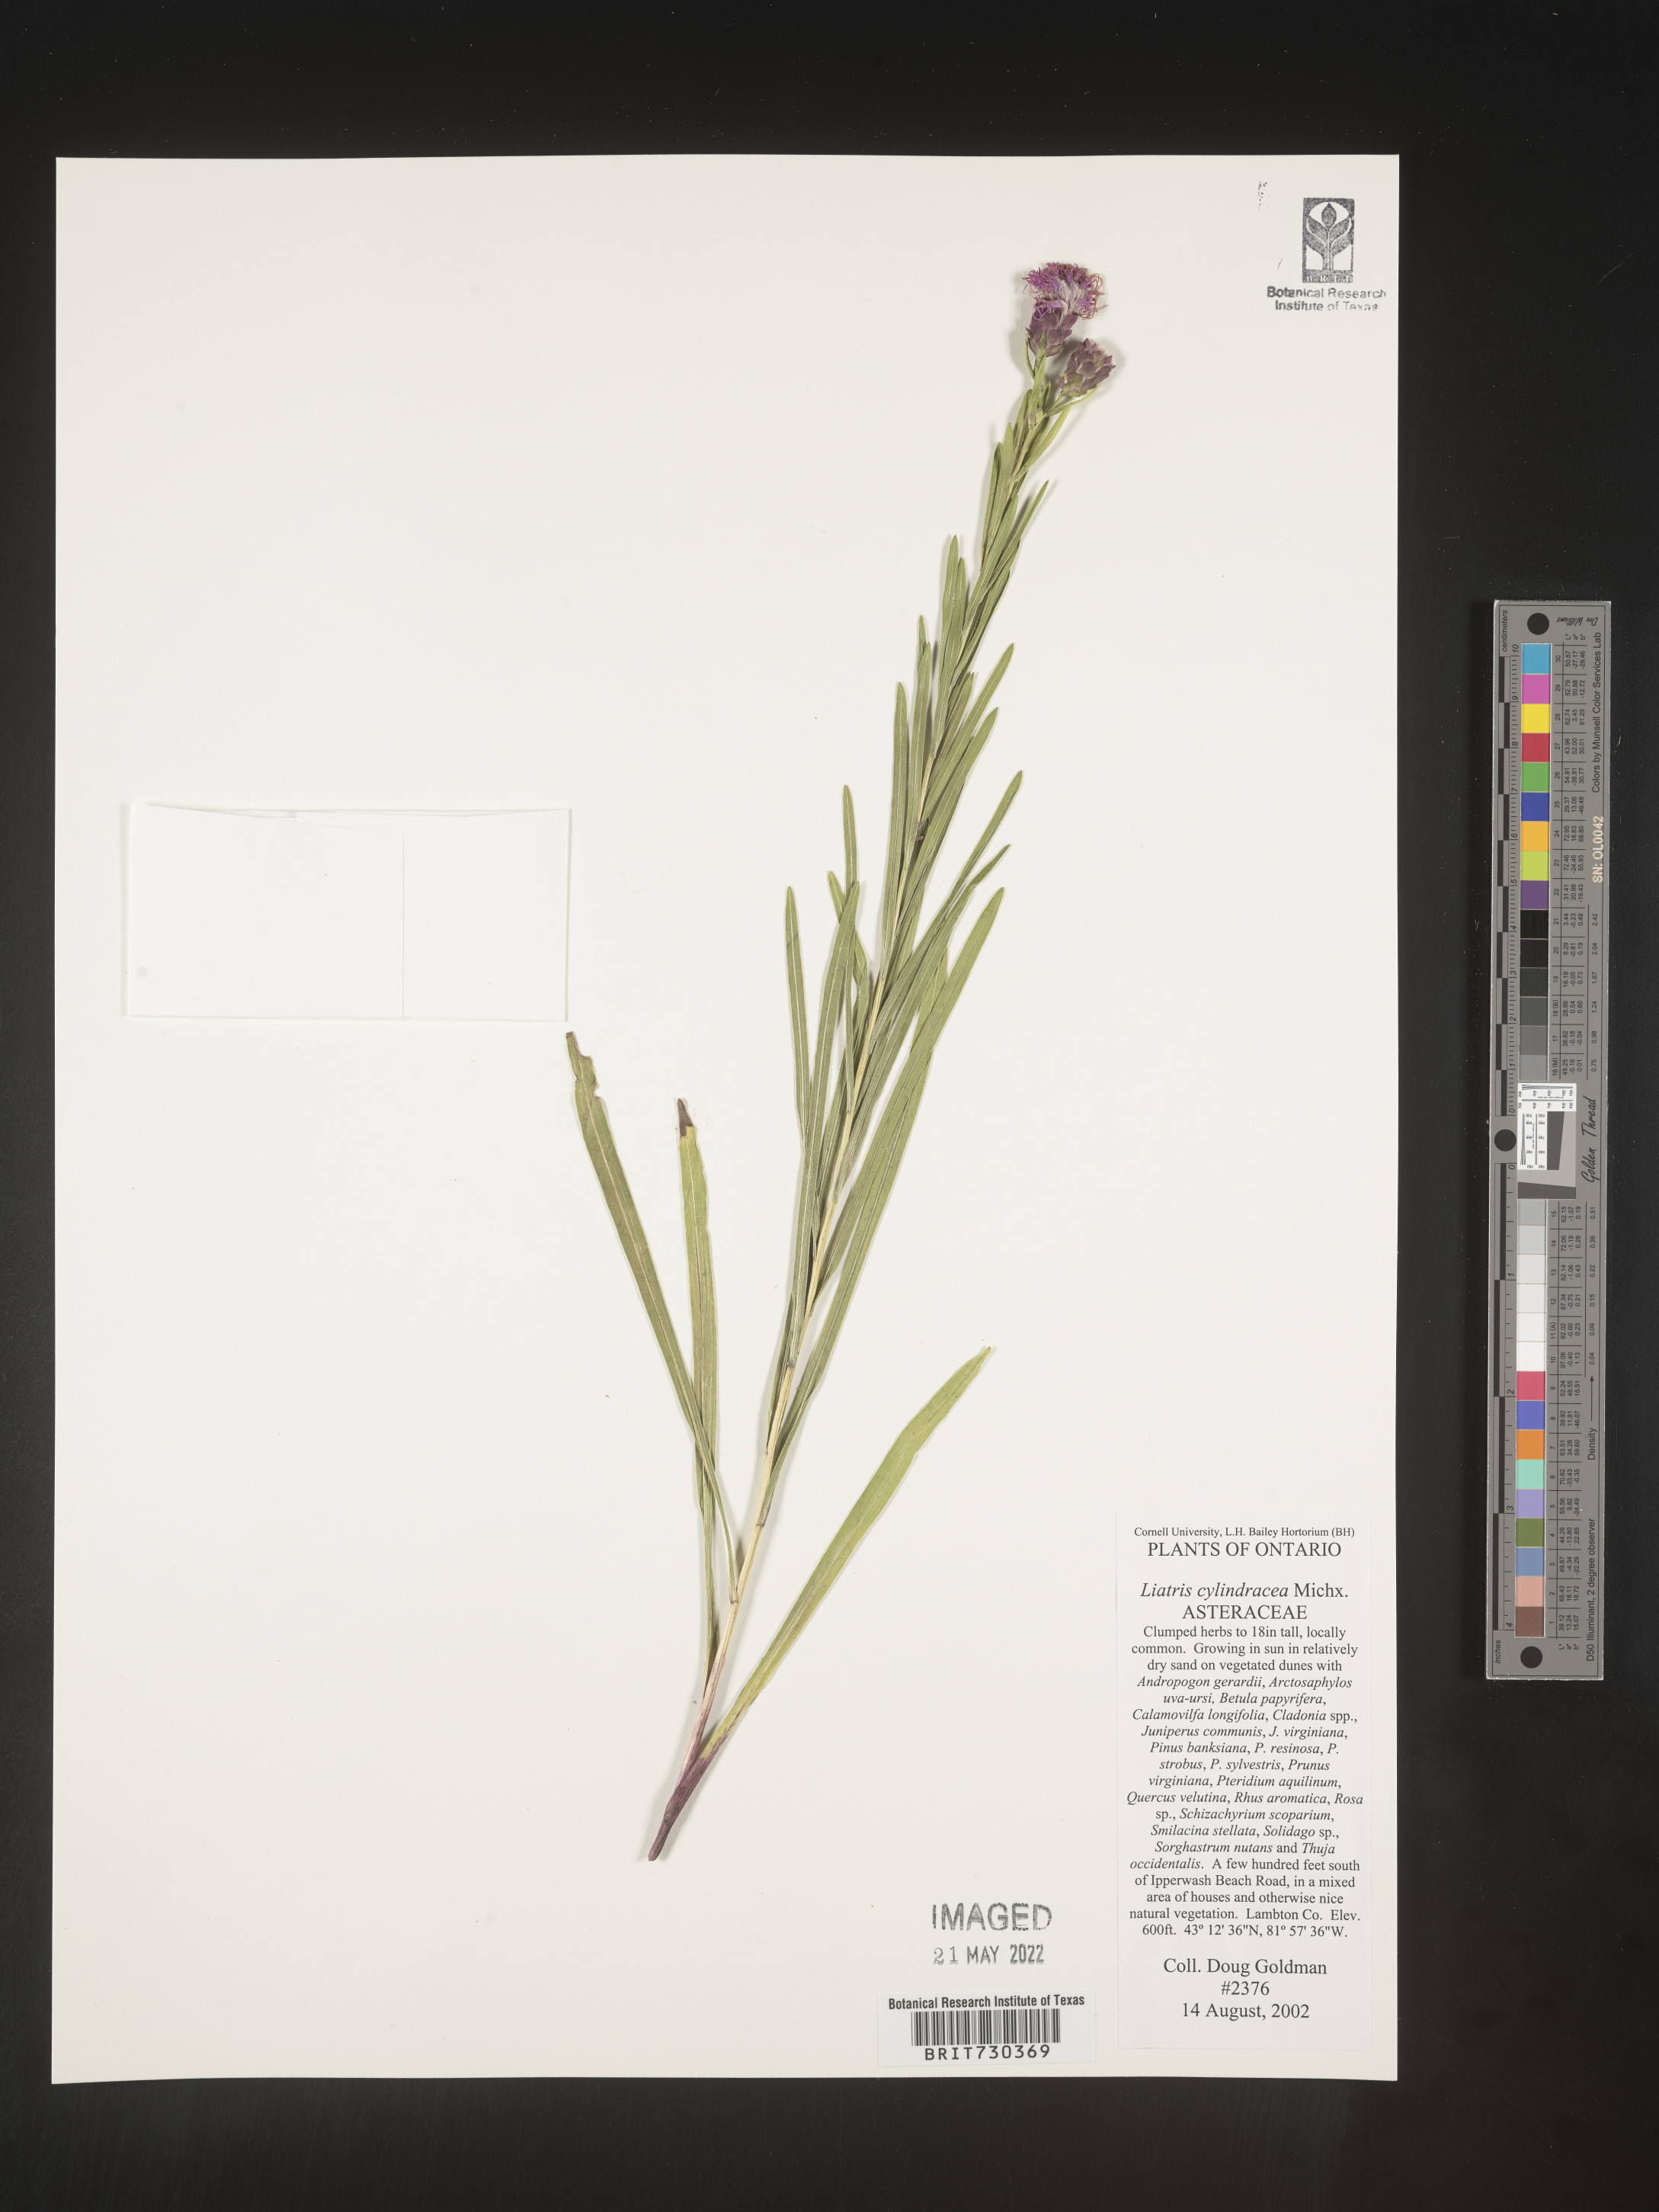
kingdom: Plantae
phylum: Tracheophyta
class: Magnoliopsida
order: Asterales
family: Asteraceae
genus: Liatris
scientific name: Liatris cylindracea
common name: Few-head blazingstar
